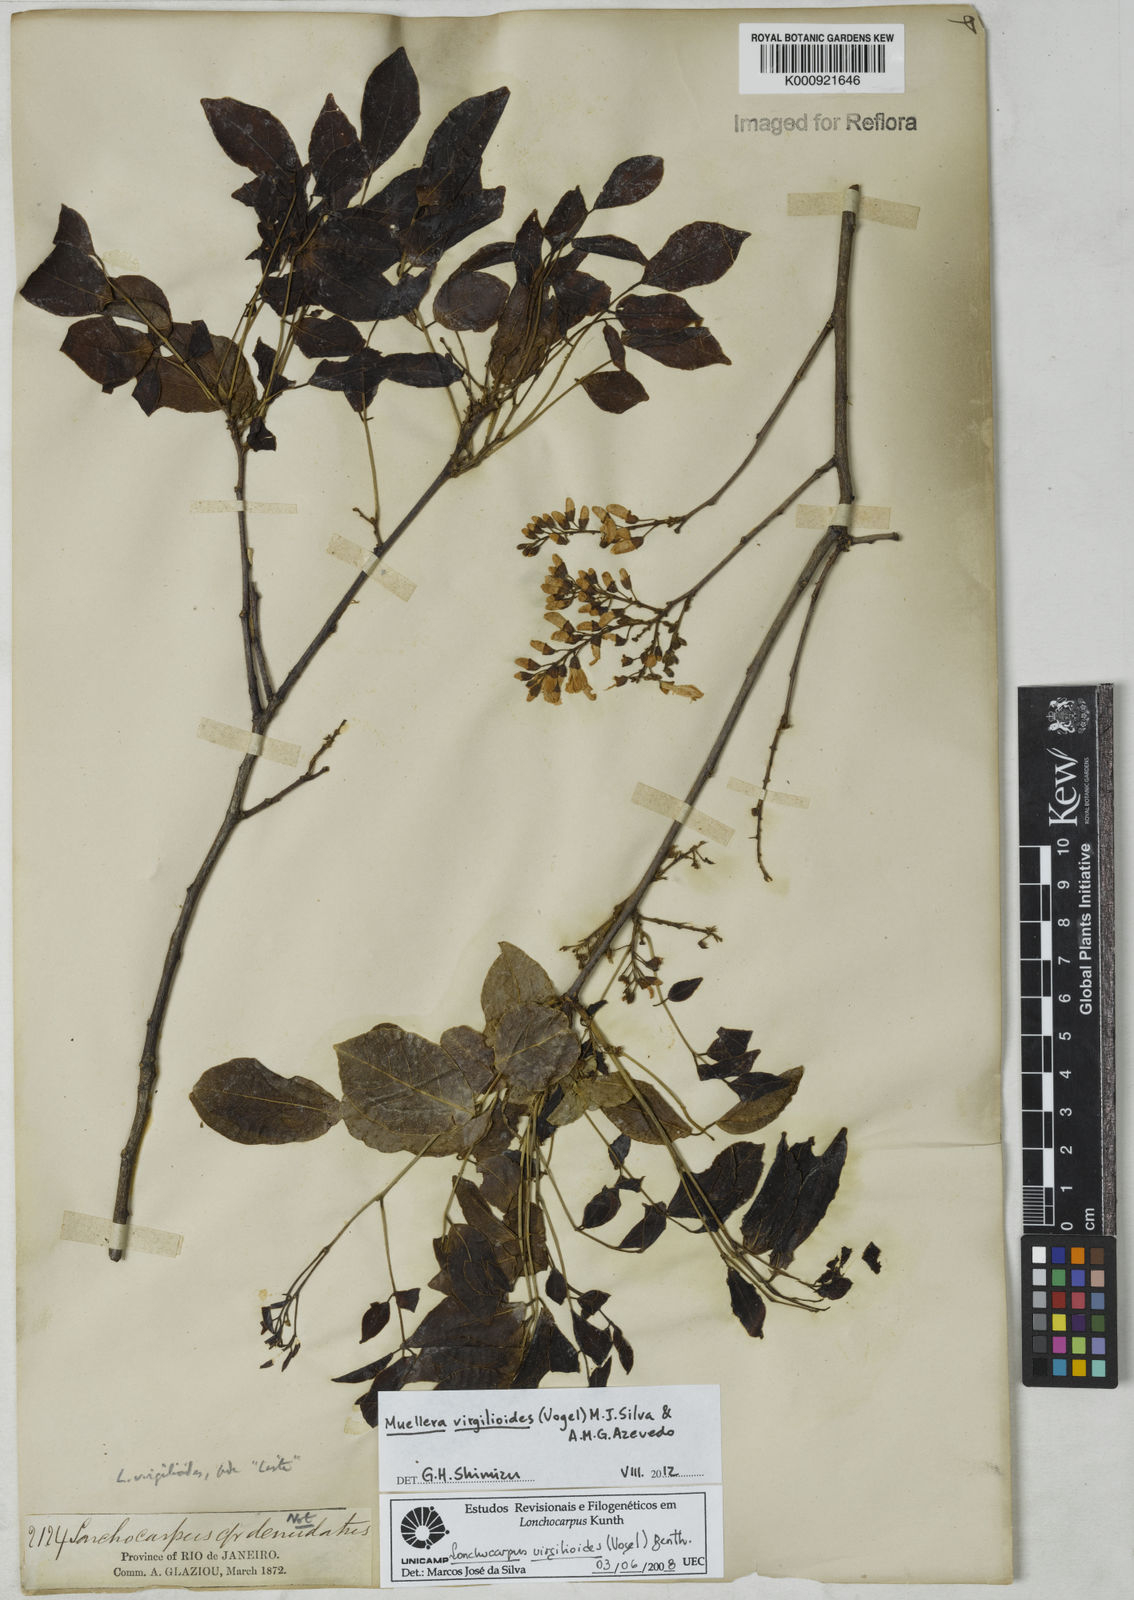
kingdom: Plantae
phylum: Tracheophyta
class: Magnoliopsida
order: Fabales
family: Fabaceae
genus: Muellera
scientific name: Muellera virgilioides
